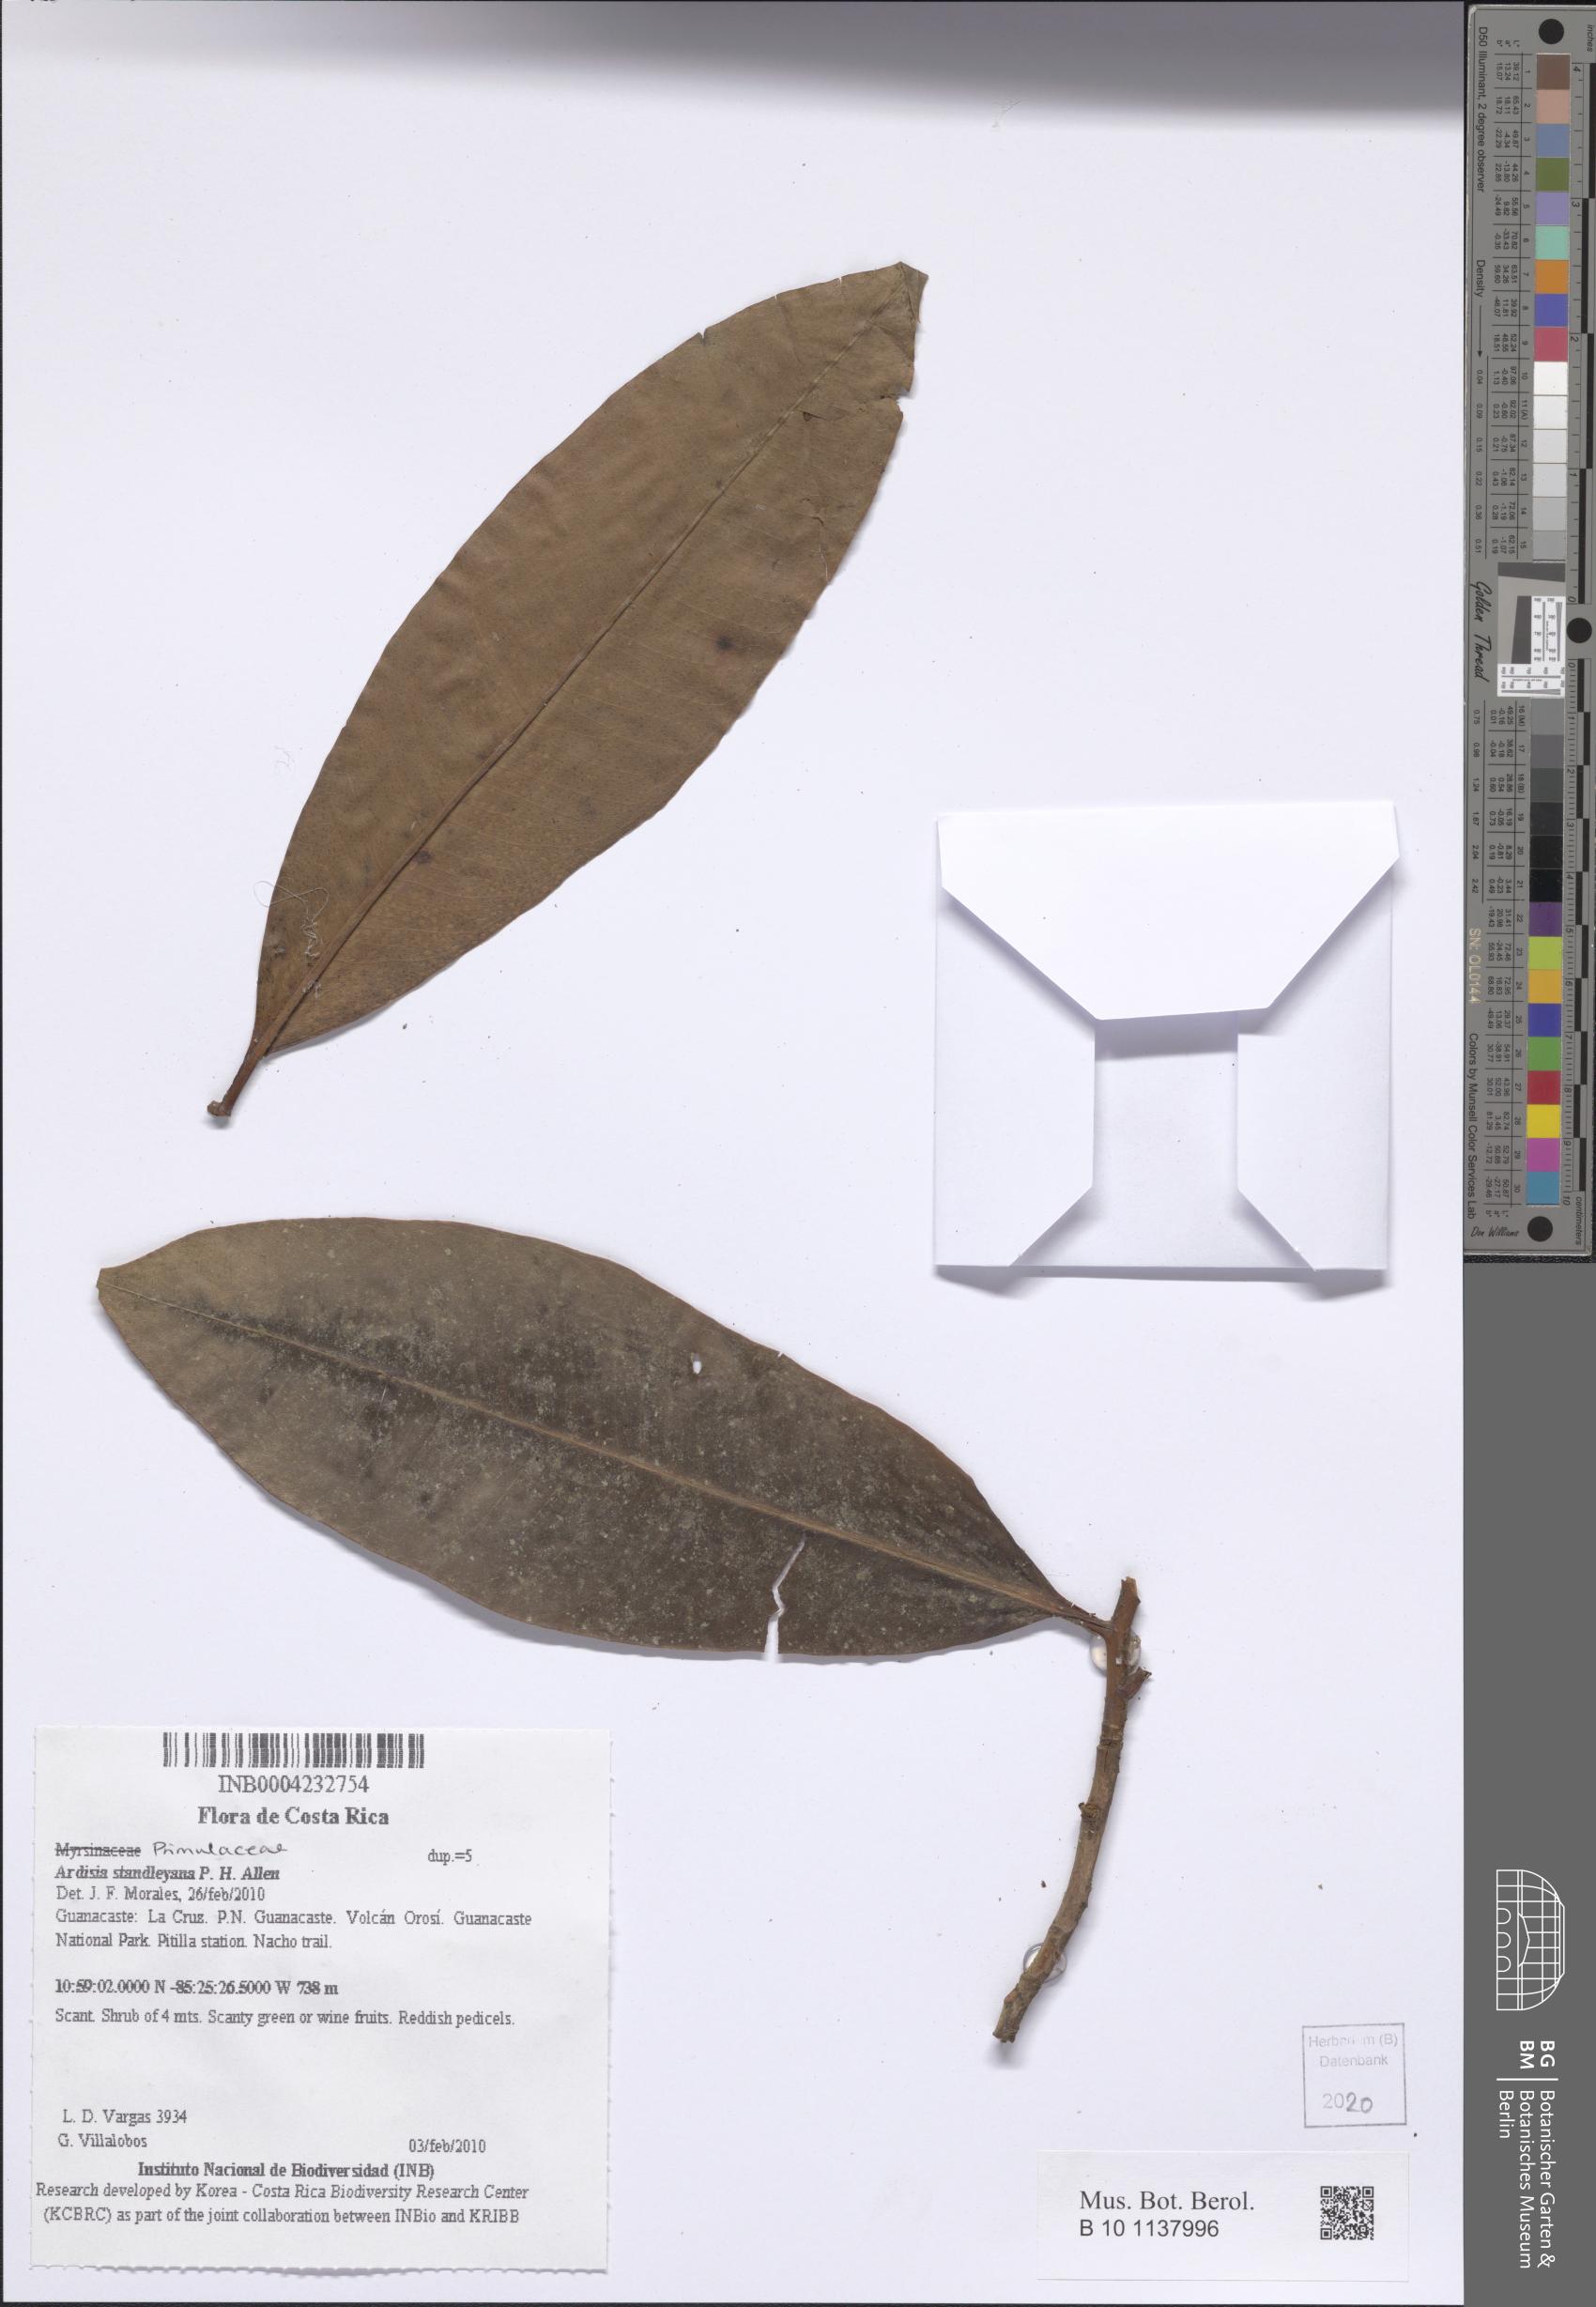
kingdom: Plantae
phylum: Tracheophyta
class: Magnoliopsida
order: Ericales
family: Primulaceae
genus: Ardisia
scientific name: Ardisia copeyana
